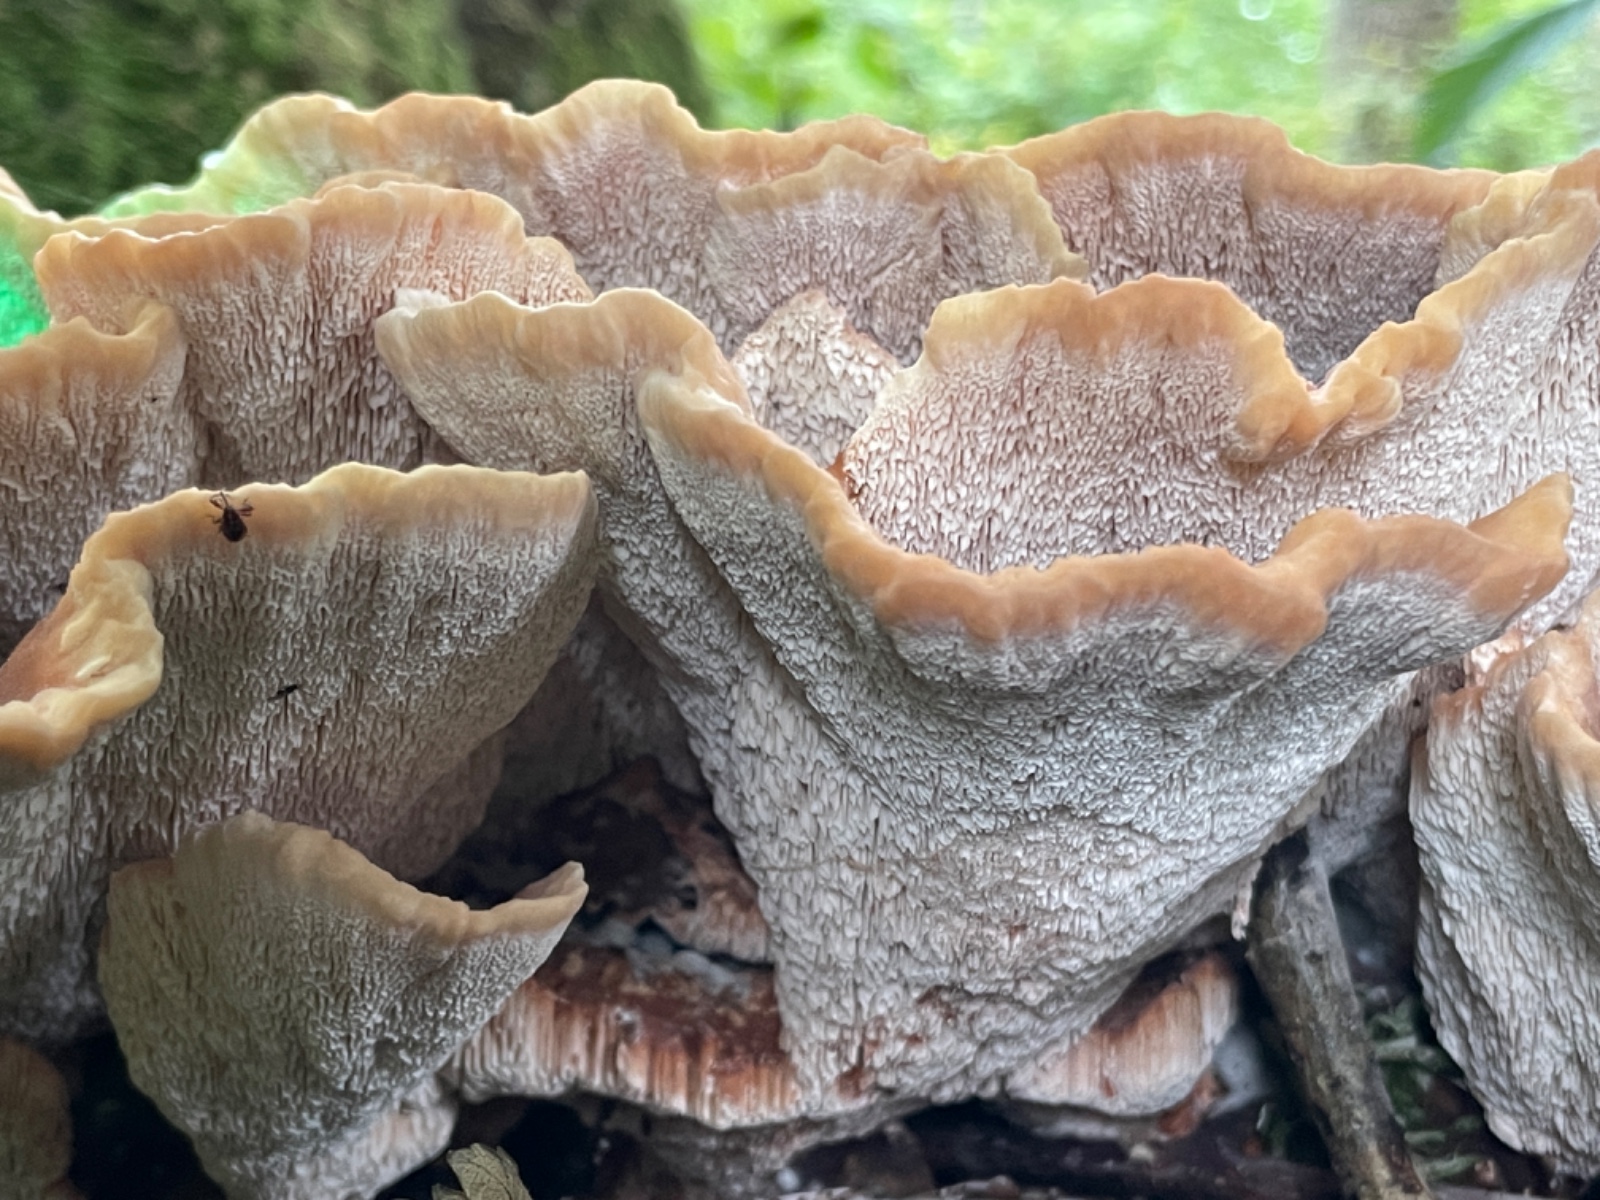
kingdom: Fungi
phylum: Basidiomycota
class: Agaricomycetes
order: Polyporales
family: Podoscyphaceae
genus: Abortiporus
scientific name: Abortiporus biennis
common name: rødmende pjalteporesvamp
